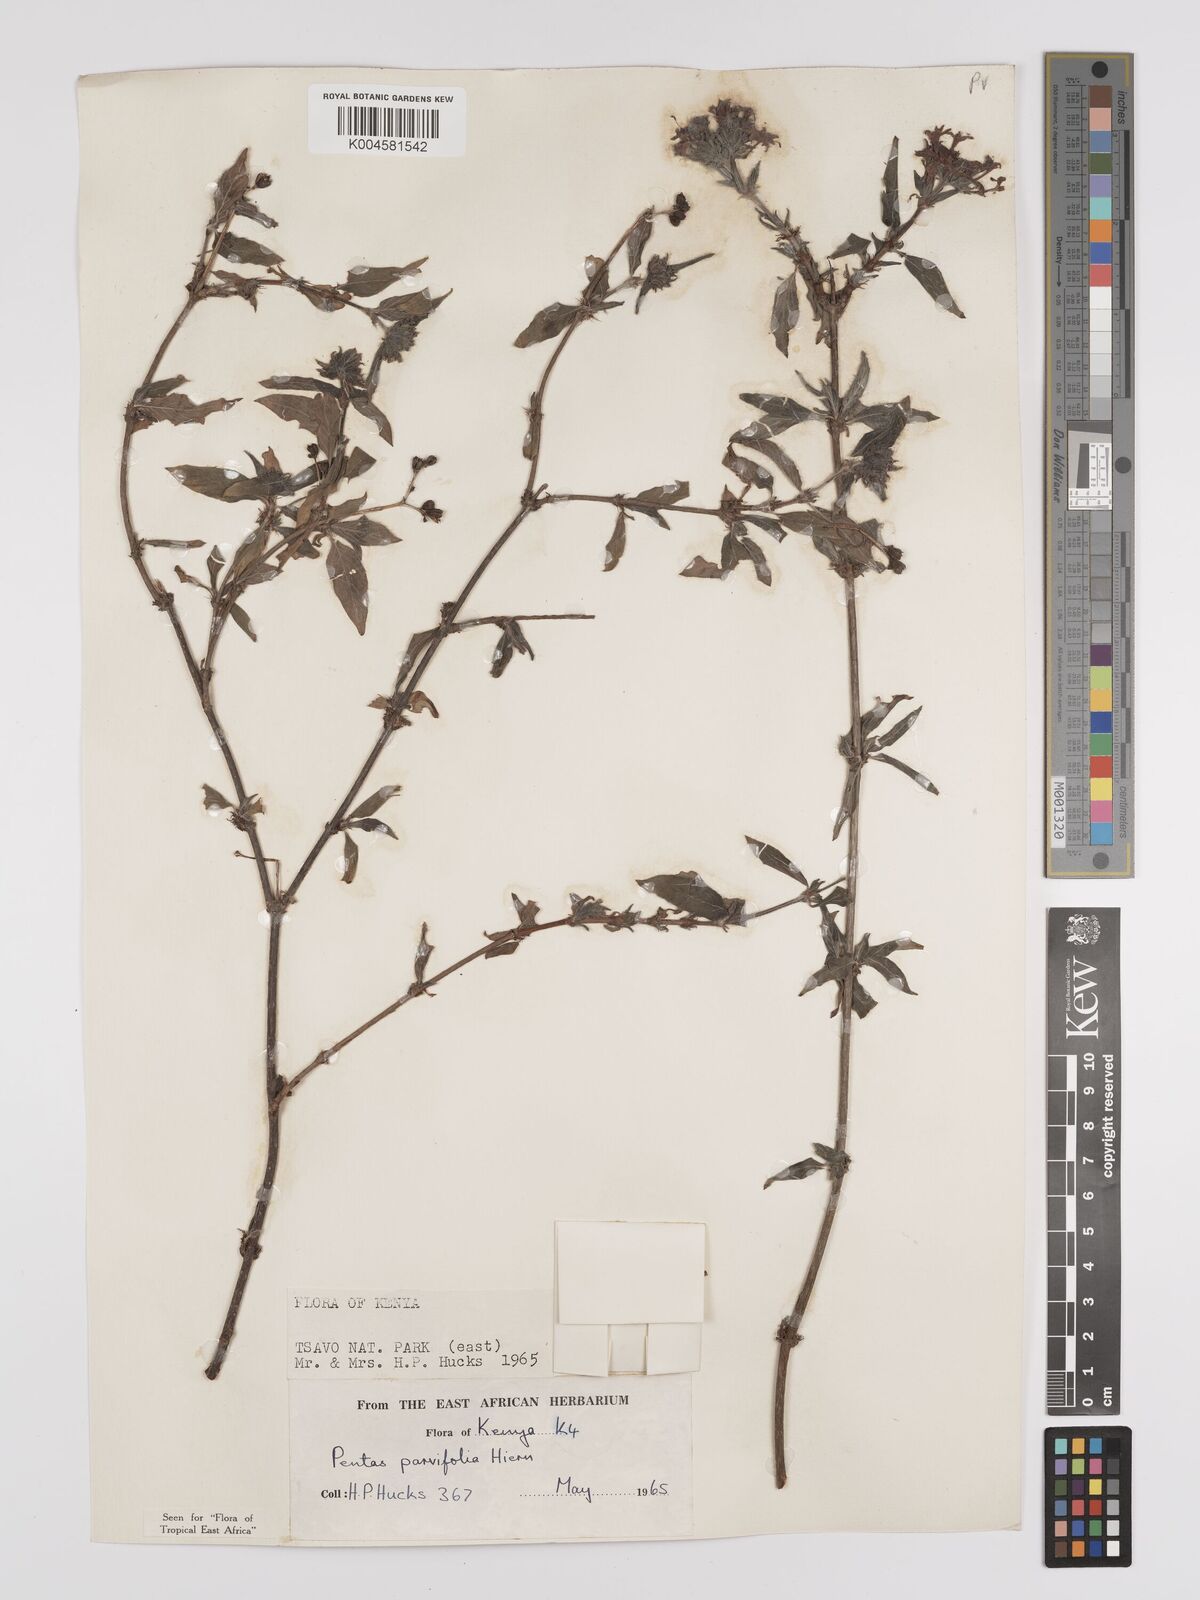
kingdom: Plantae
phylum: Tracheophyta
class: Magnoliopsida
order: Gentianales
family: Rubiaceae
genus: Rhodopentas
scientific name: Rhodopentas parvifolia
